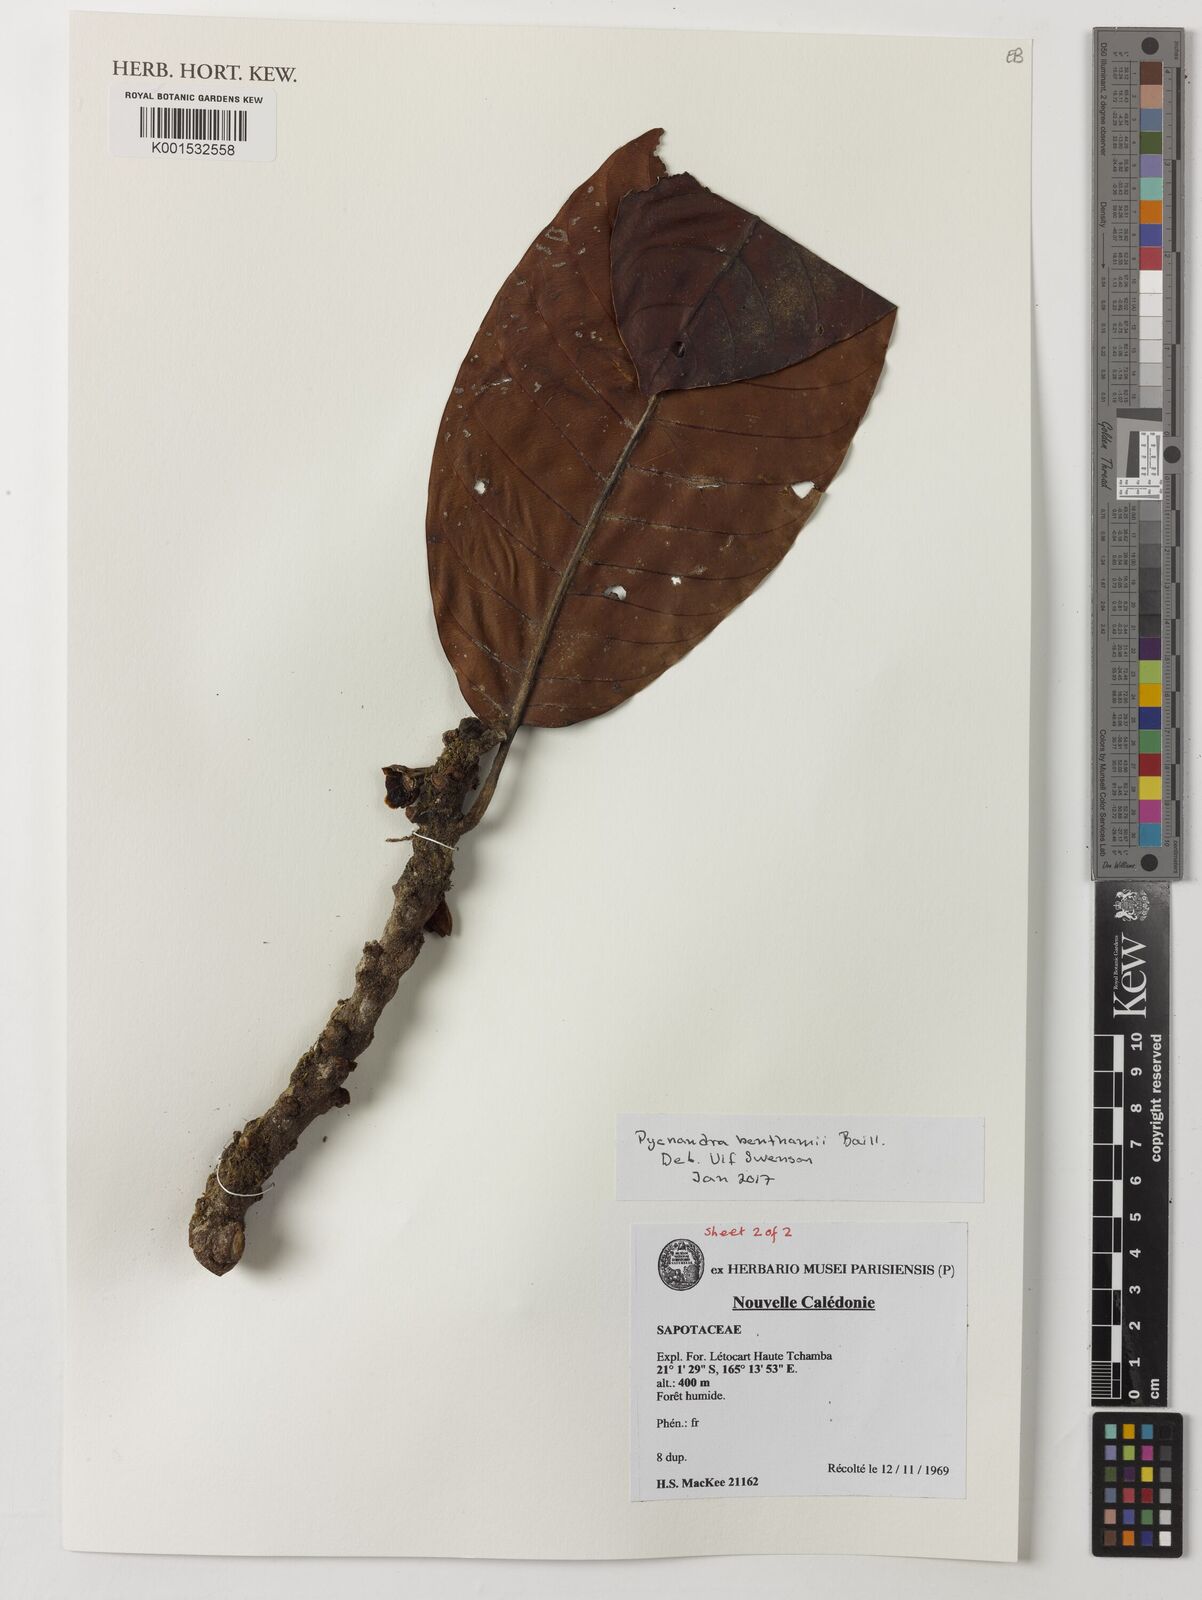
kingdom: Plantae
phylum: Tracheophyta
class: Magnoliopsida
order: Ericales
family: Sapotaceae
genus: Pycnandra
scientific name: Pycnandra benthamii
